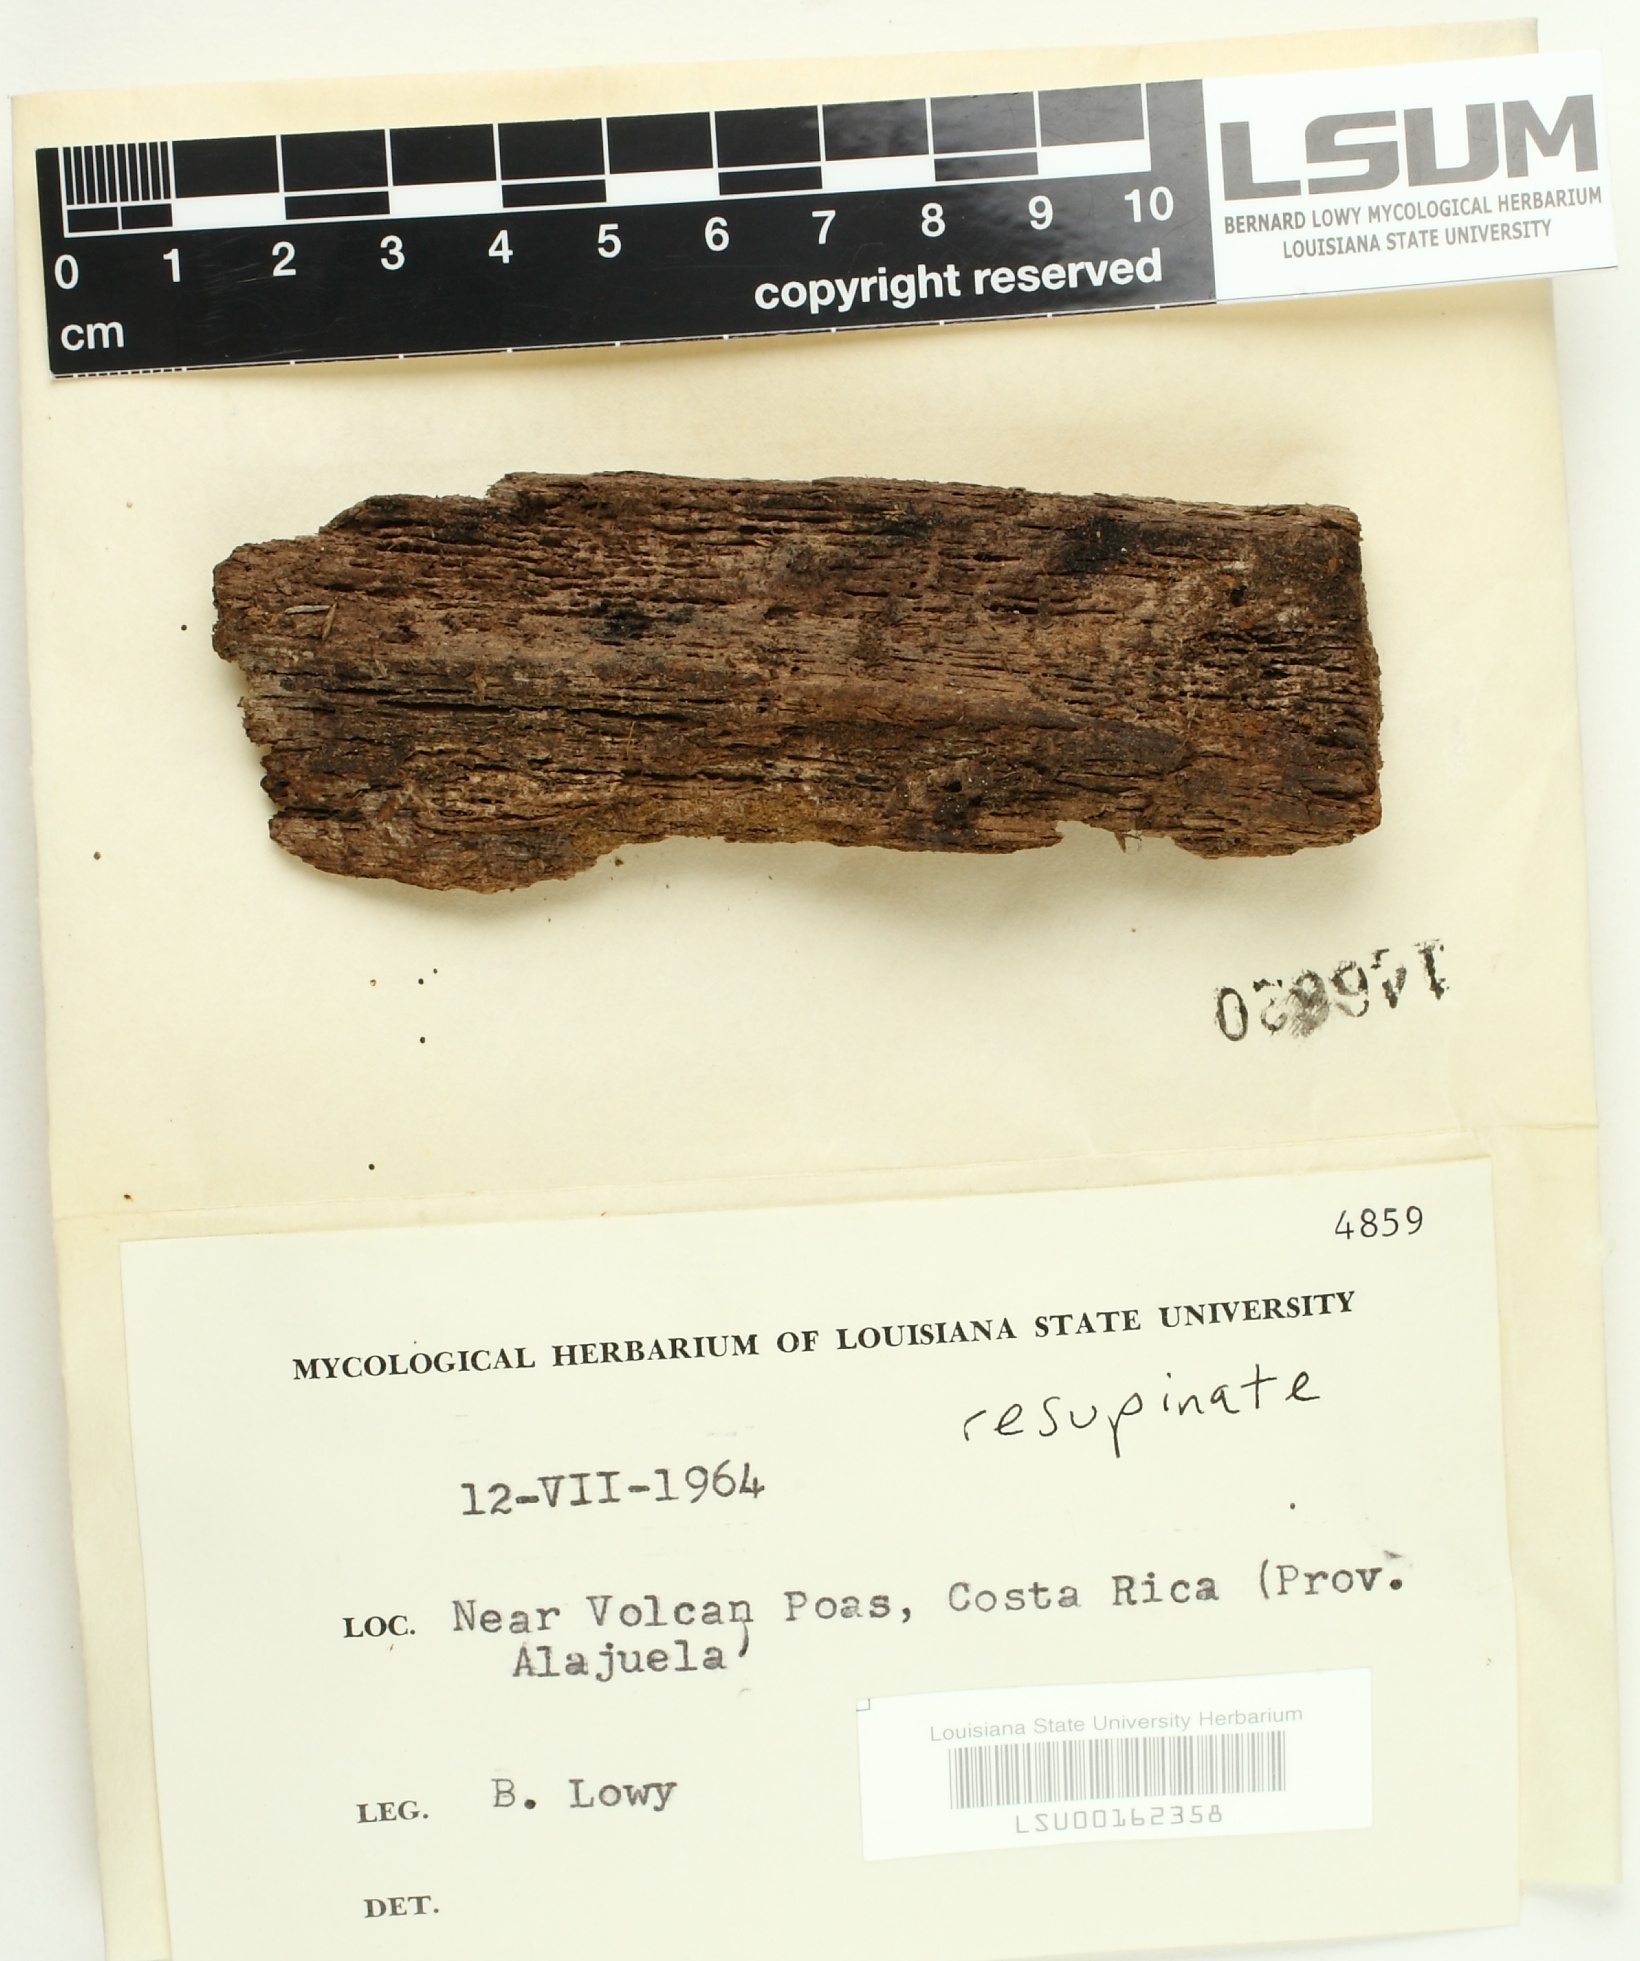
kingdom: Fungi
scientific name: Fungi
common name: Fungi
